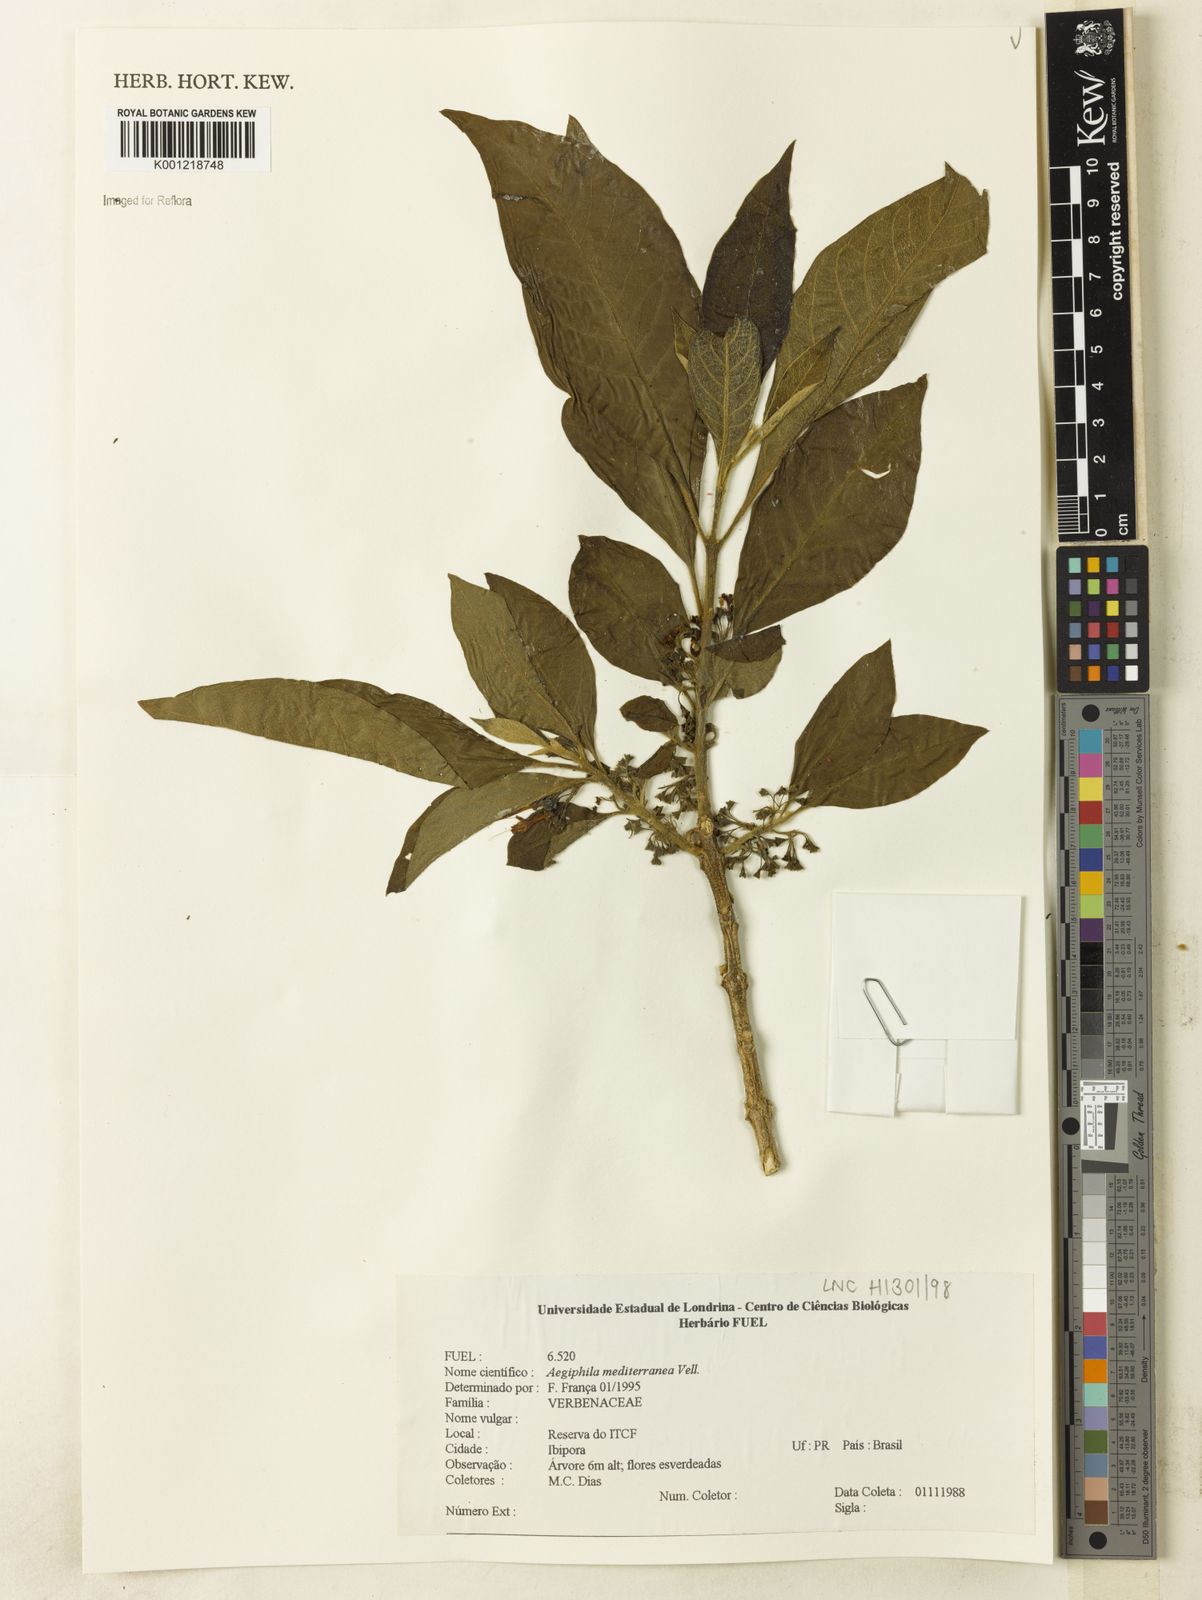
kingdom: Plantae
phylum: Tracheophyta
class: Magnoliopsida
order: Lamiales
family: Lamiaceae
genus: Aegiphila
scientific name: Aegiphila mediterranea
